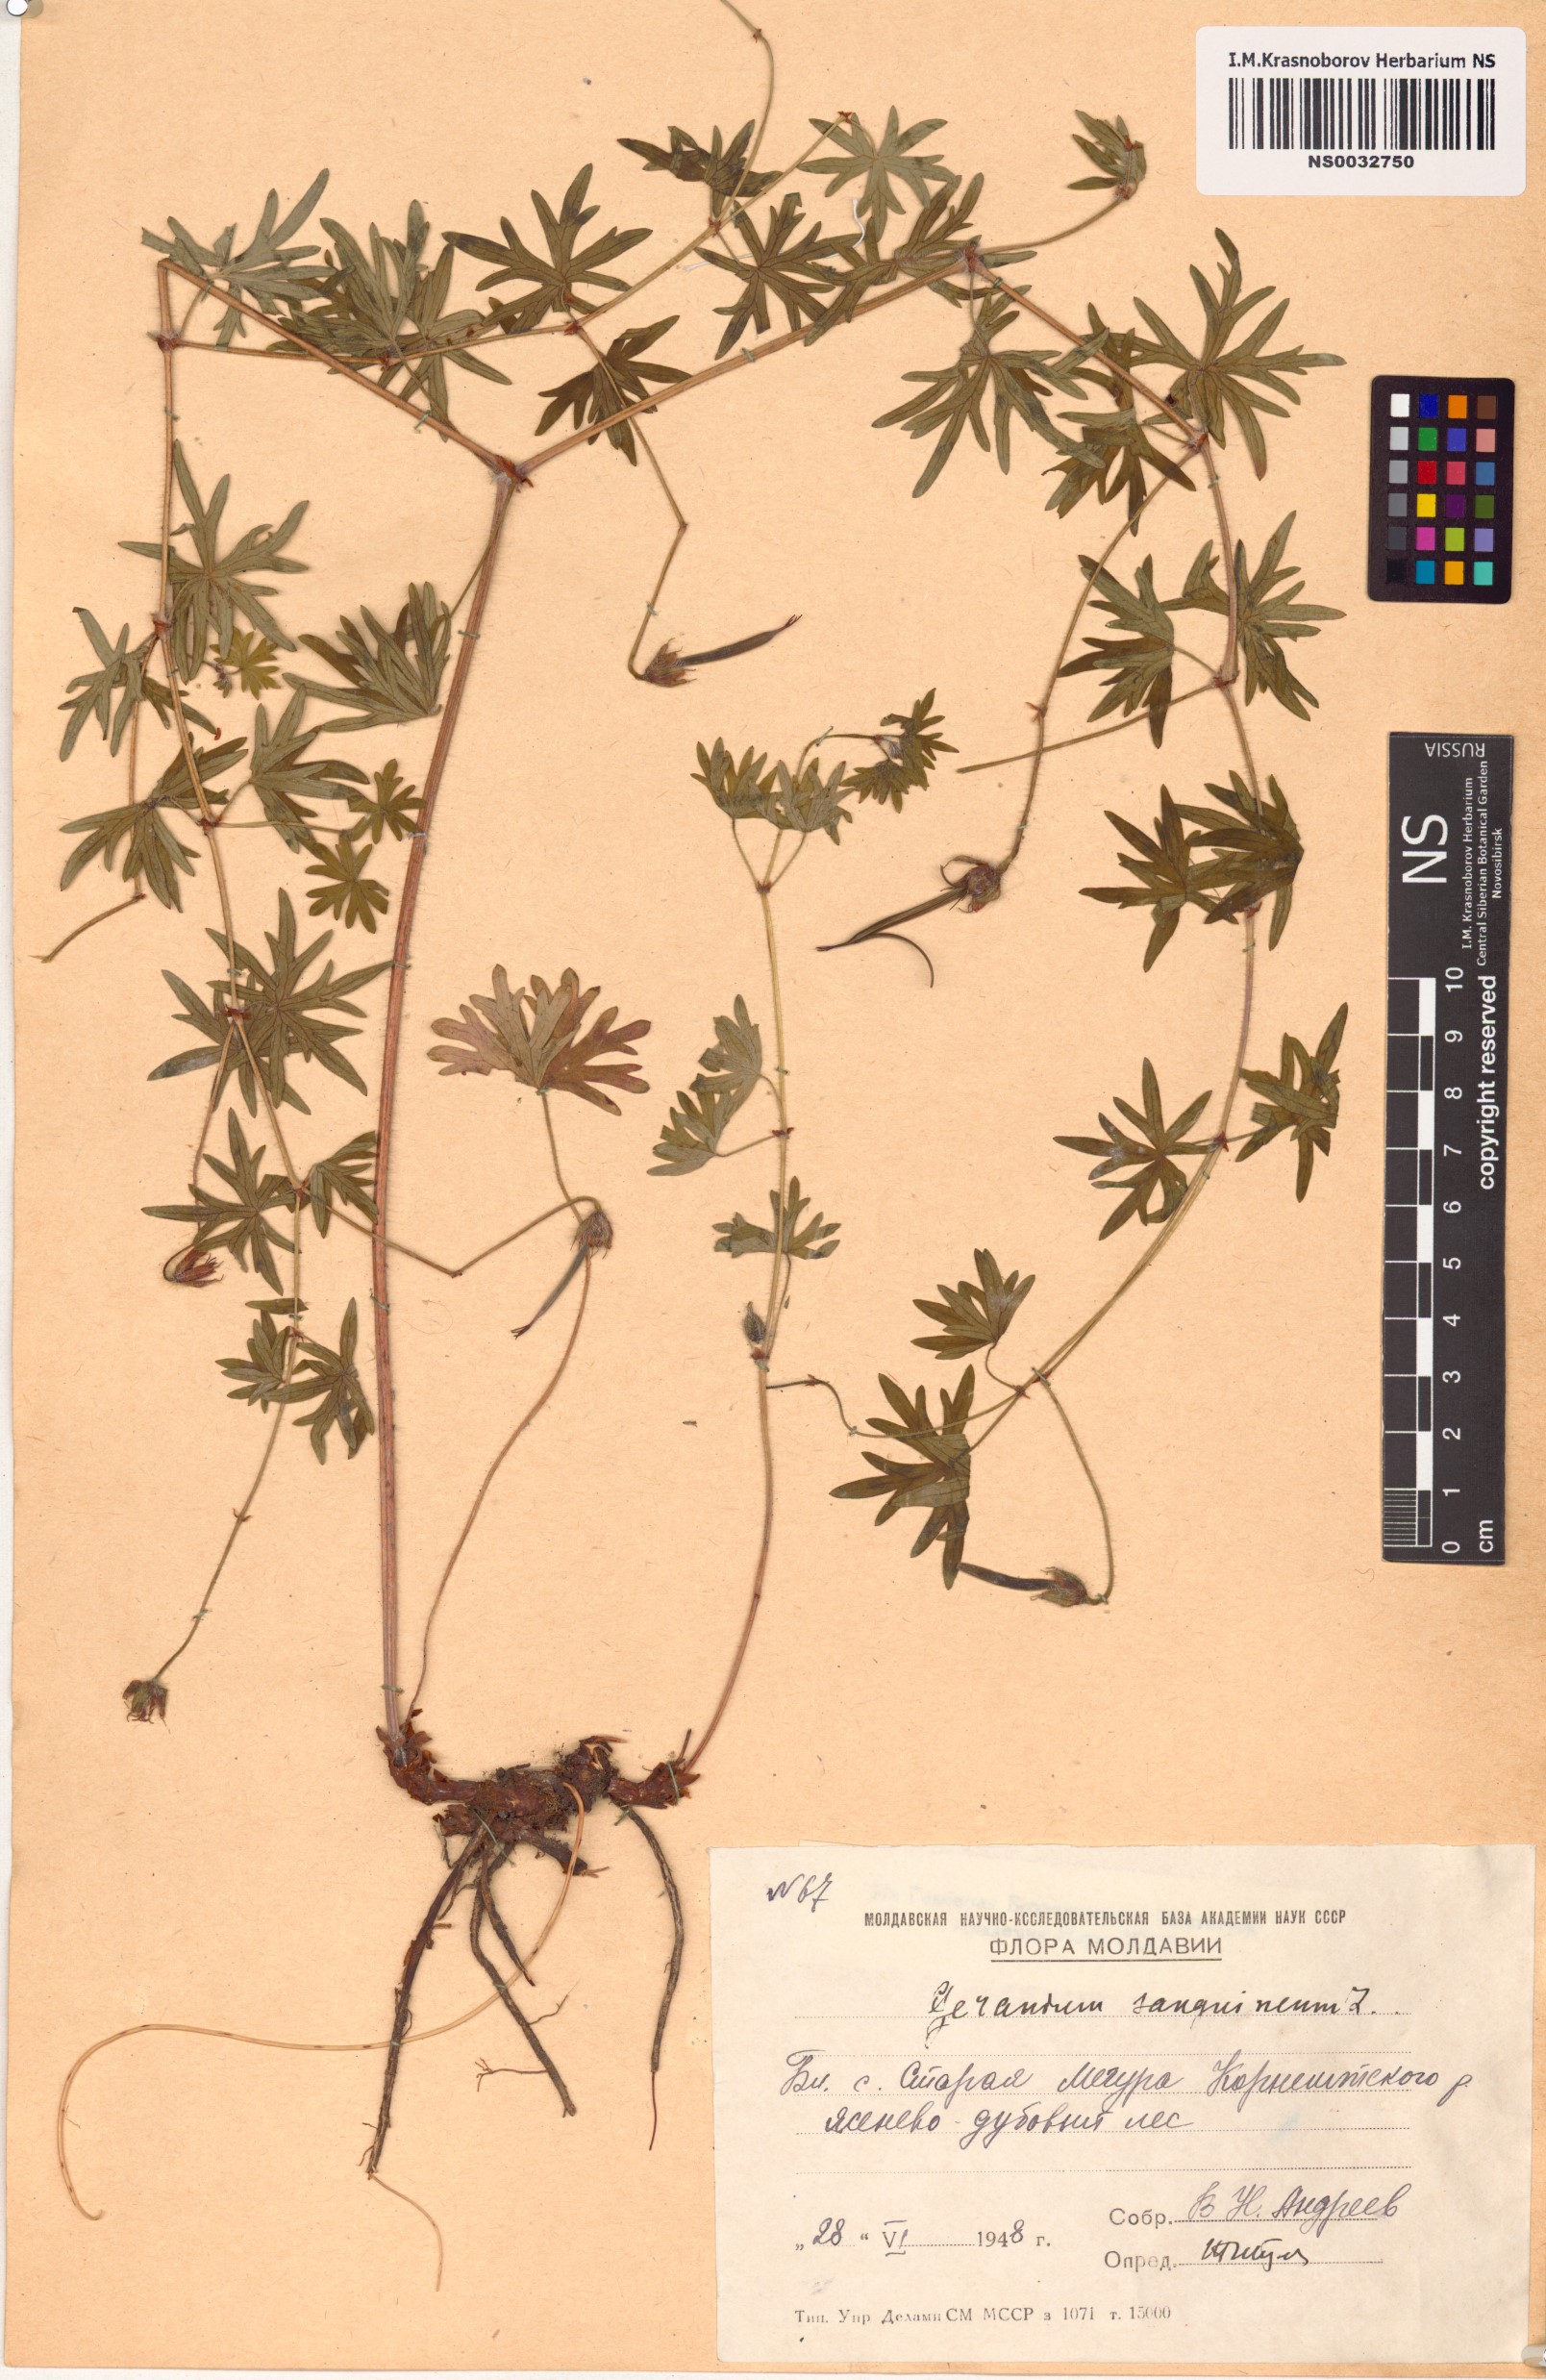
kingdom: Plantae
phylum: Tracheophyta
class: Magnoliopsida
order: Geraniales
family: Geraniaceae
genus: Geranium
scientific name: Geranium sanguineum
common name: Bloody crane's-bill
